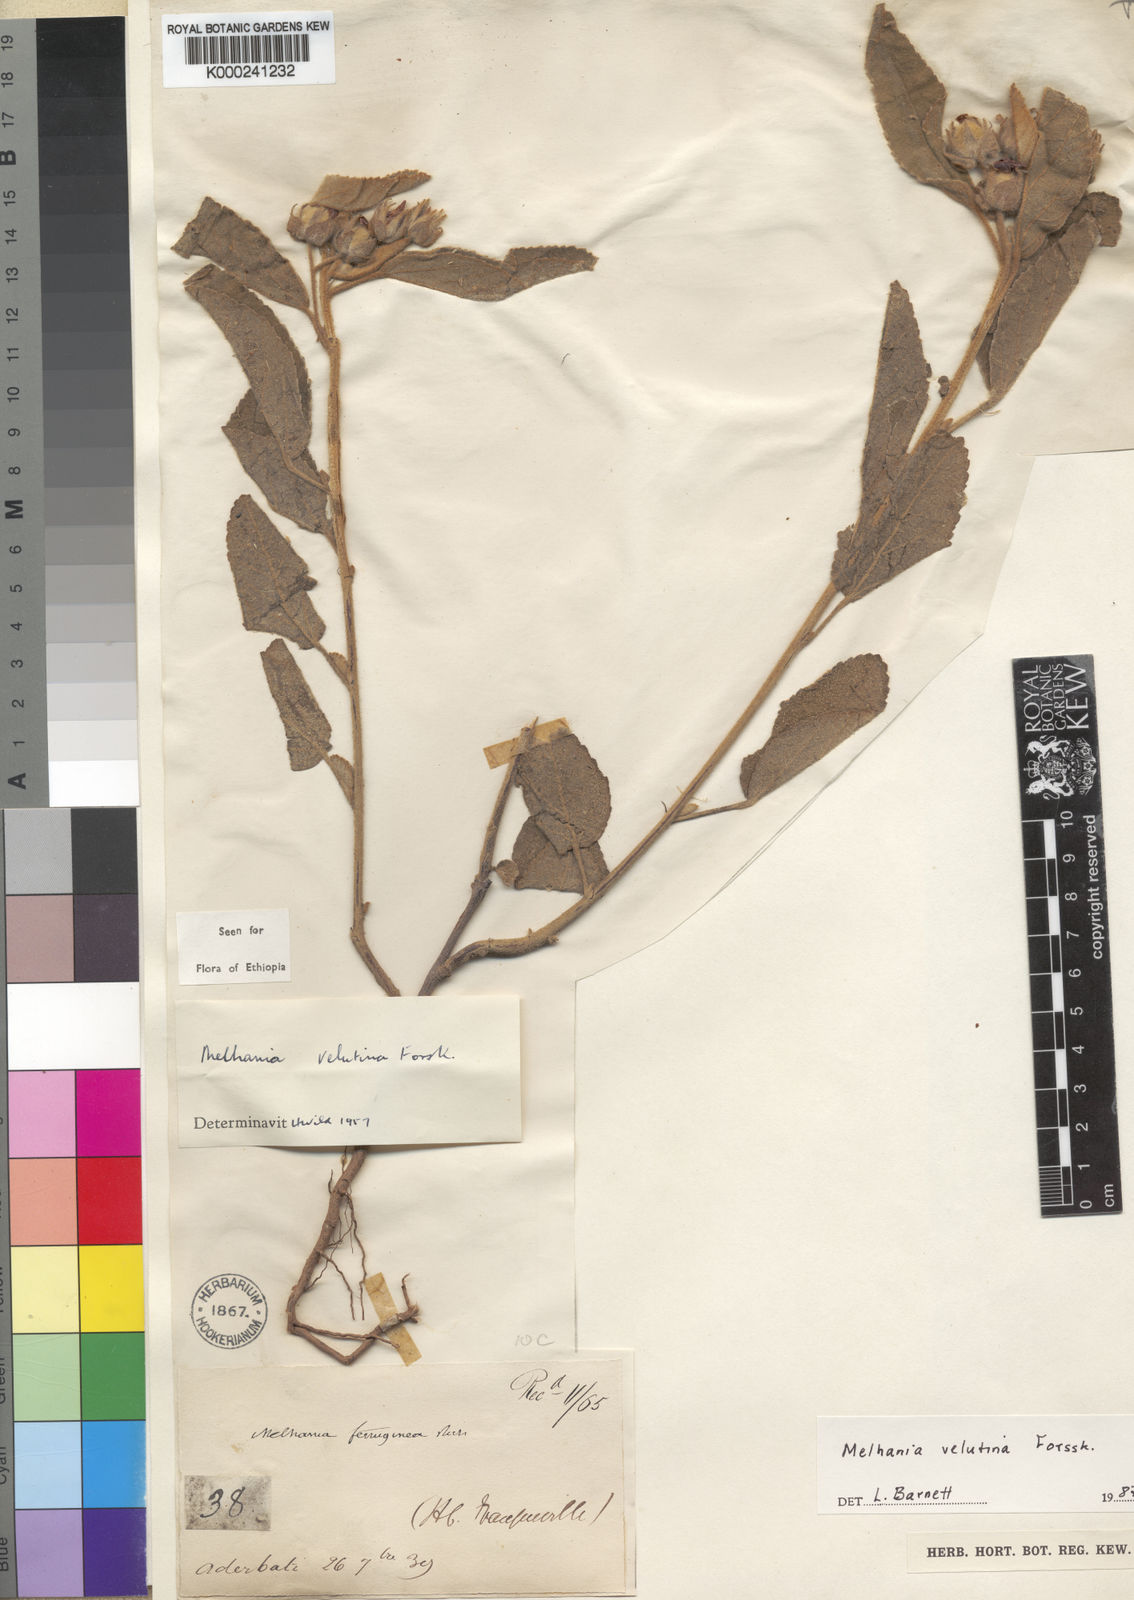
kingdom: Plantae
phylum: Tracheophyta
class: Magnoliopsida
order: Malvales
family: Malvaceae
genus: Melhania
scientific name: Melhania velutina
